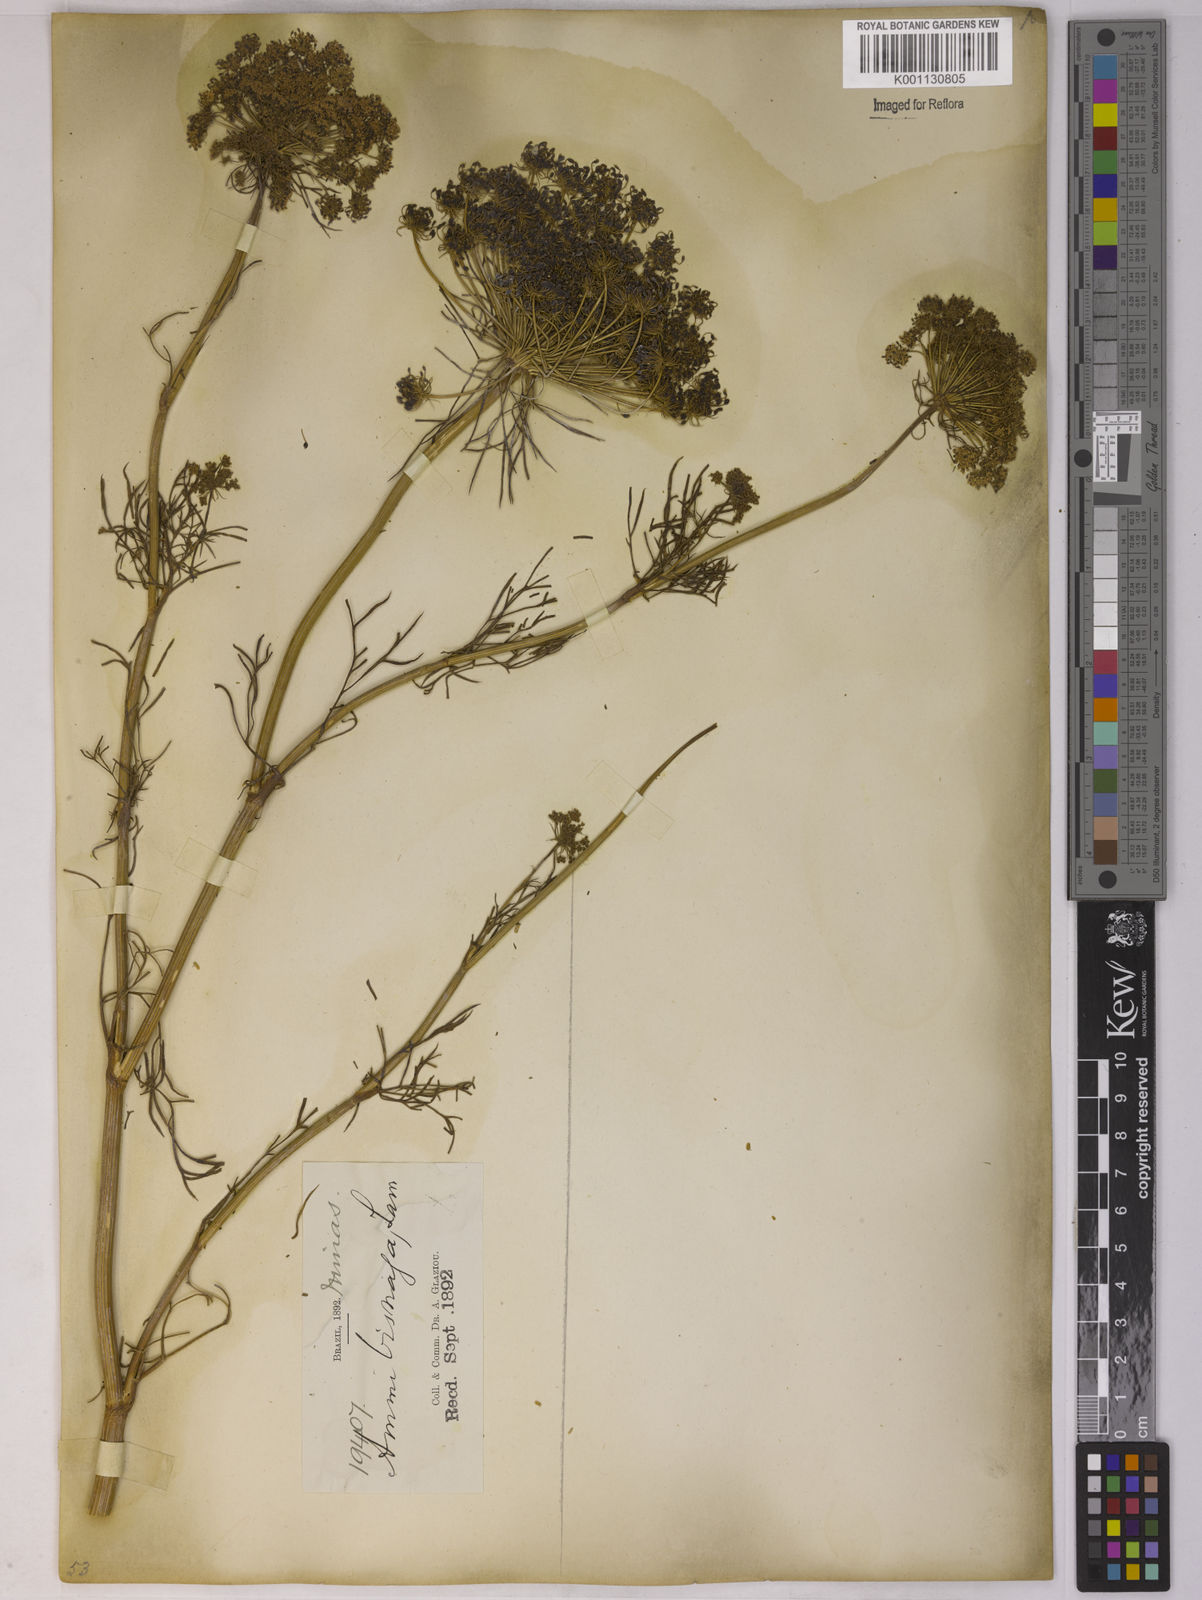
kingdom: Plantae
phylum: Tracheophyta
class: Magnoliopsida
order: Apiales
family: Apiaceae
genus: Visnaga
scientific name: Visnaga daucoides
